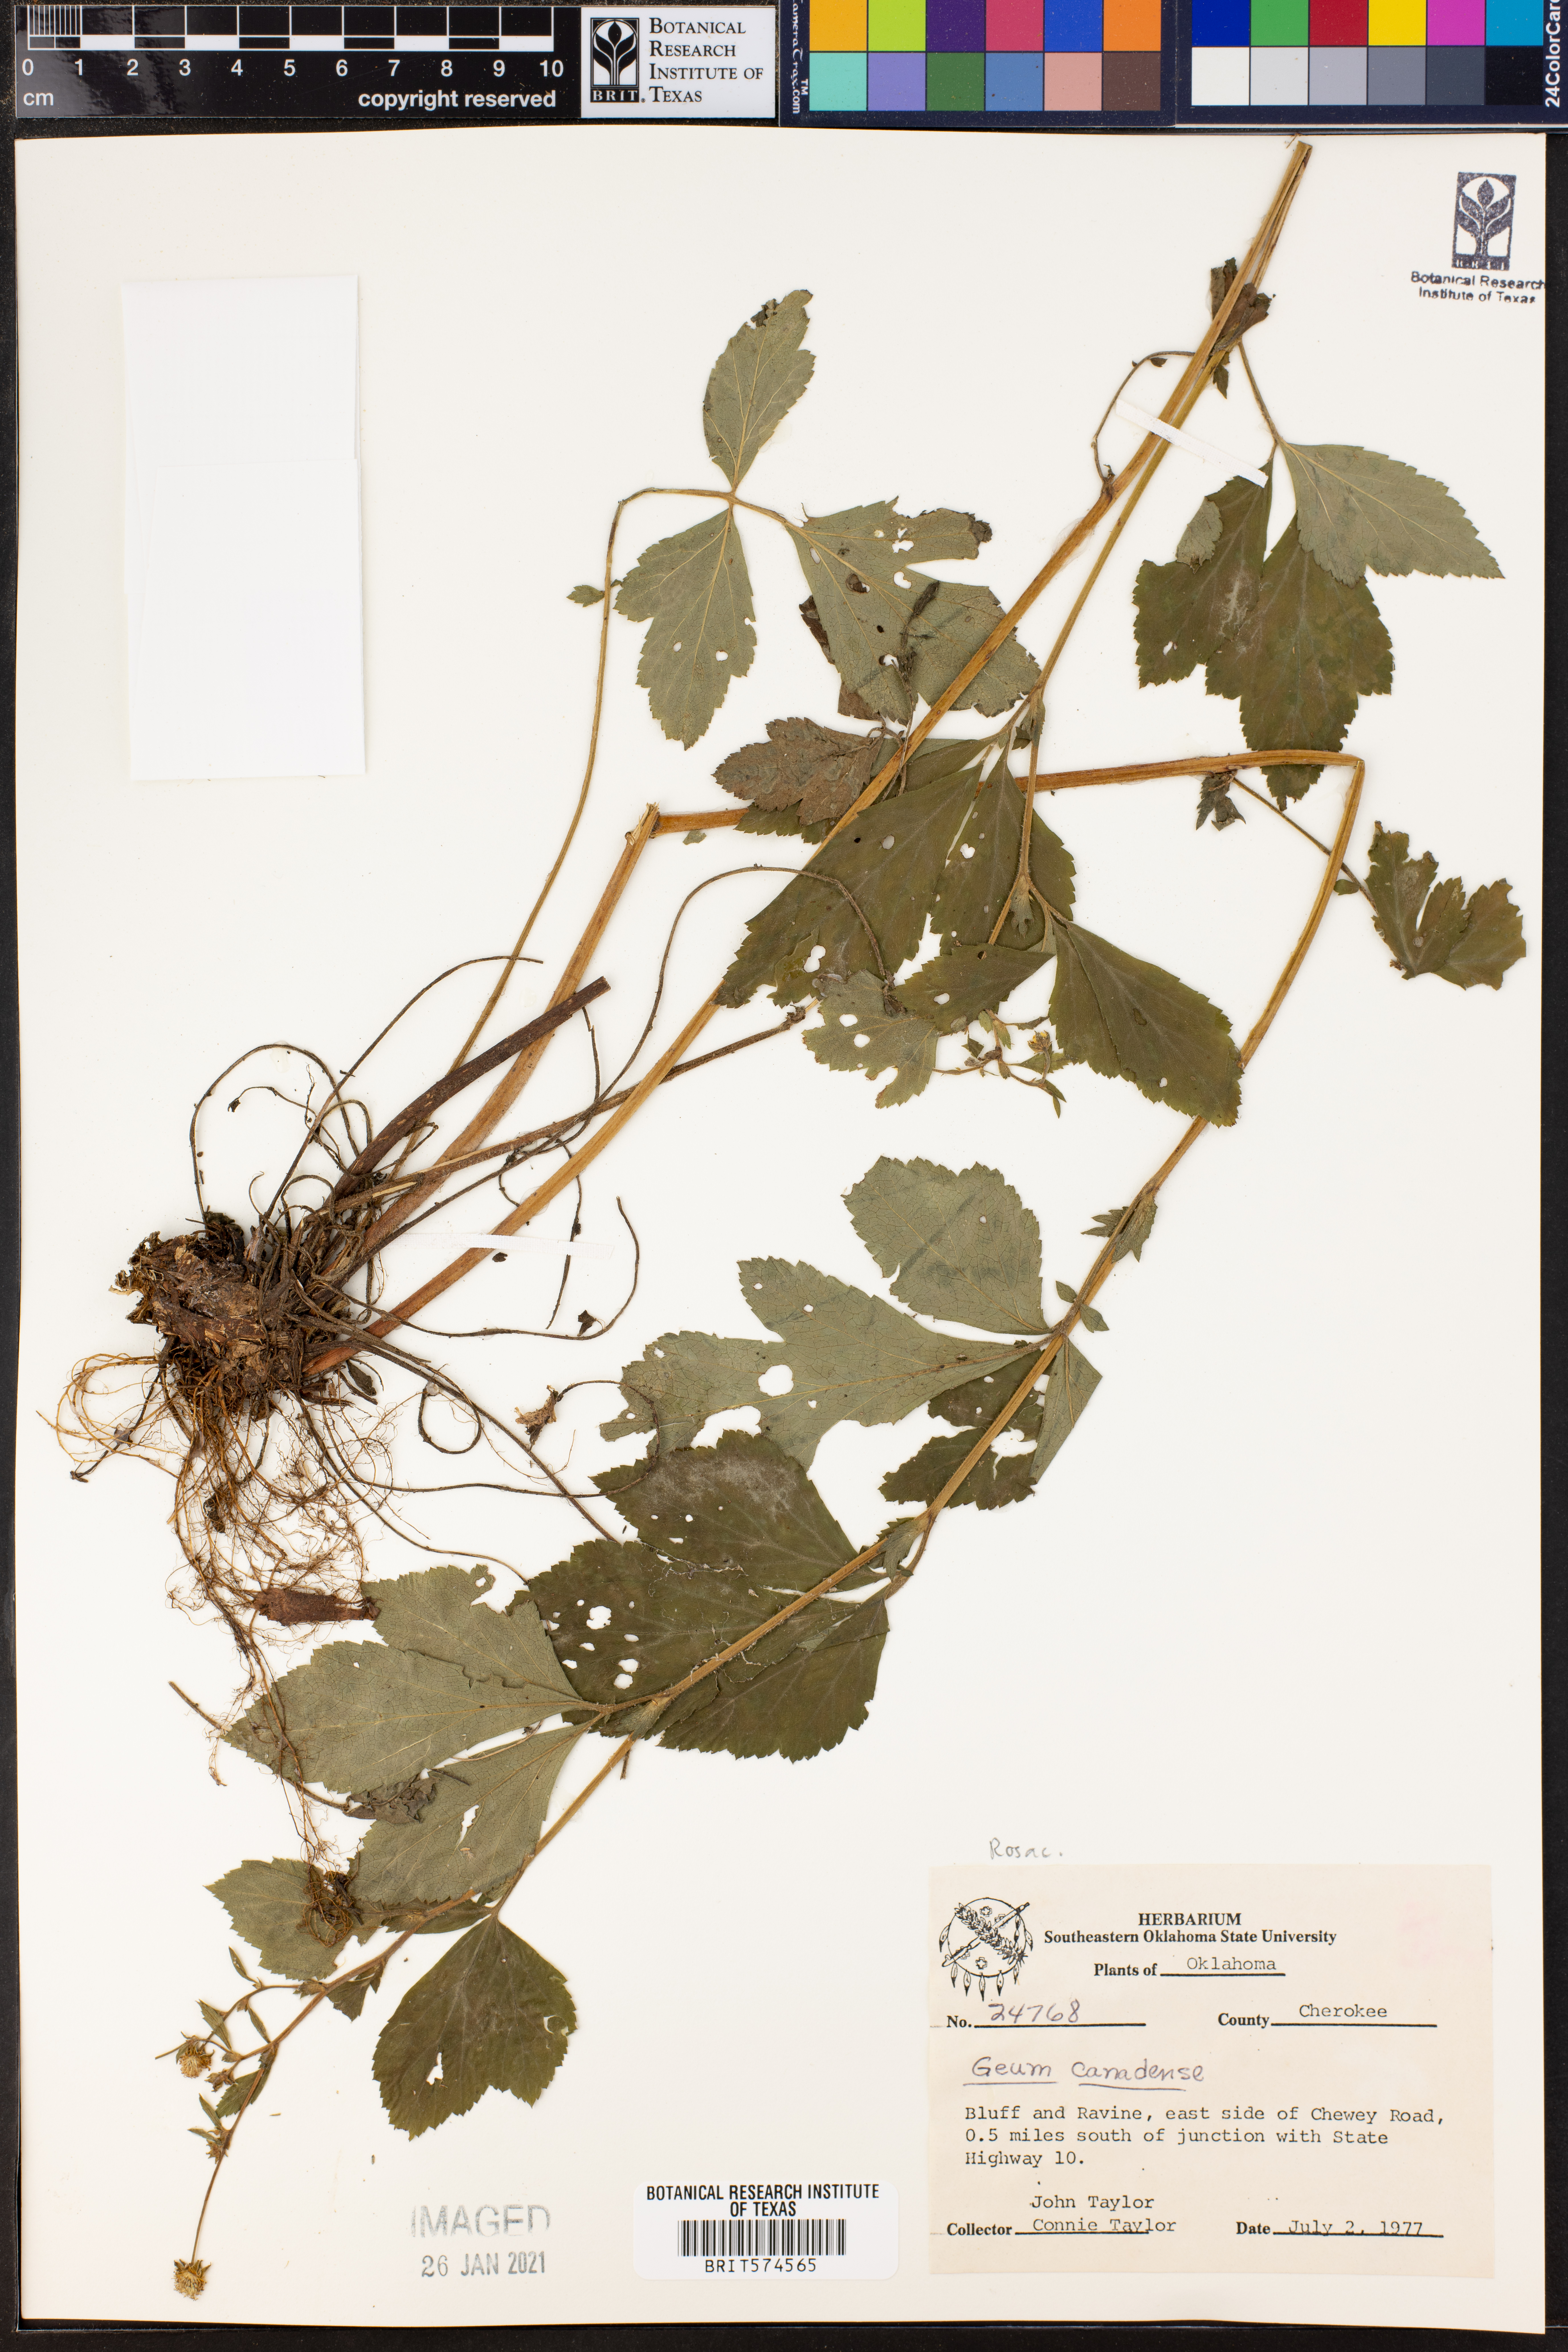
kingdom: Plantae
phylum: Tracheophyta
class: Magnoliopsida
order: Rosales
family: Rosaceae
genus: Geum
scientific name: Geum canadense
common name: White avens
